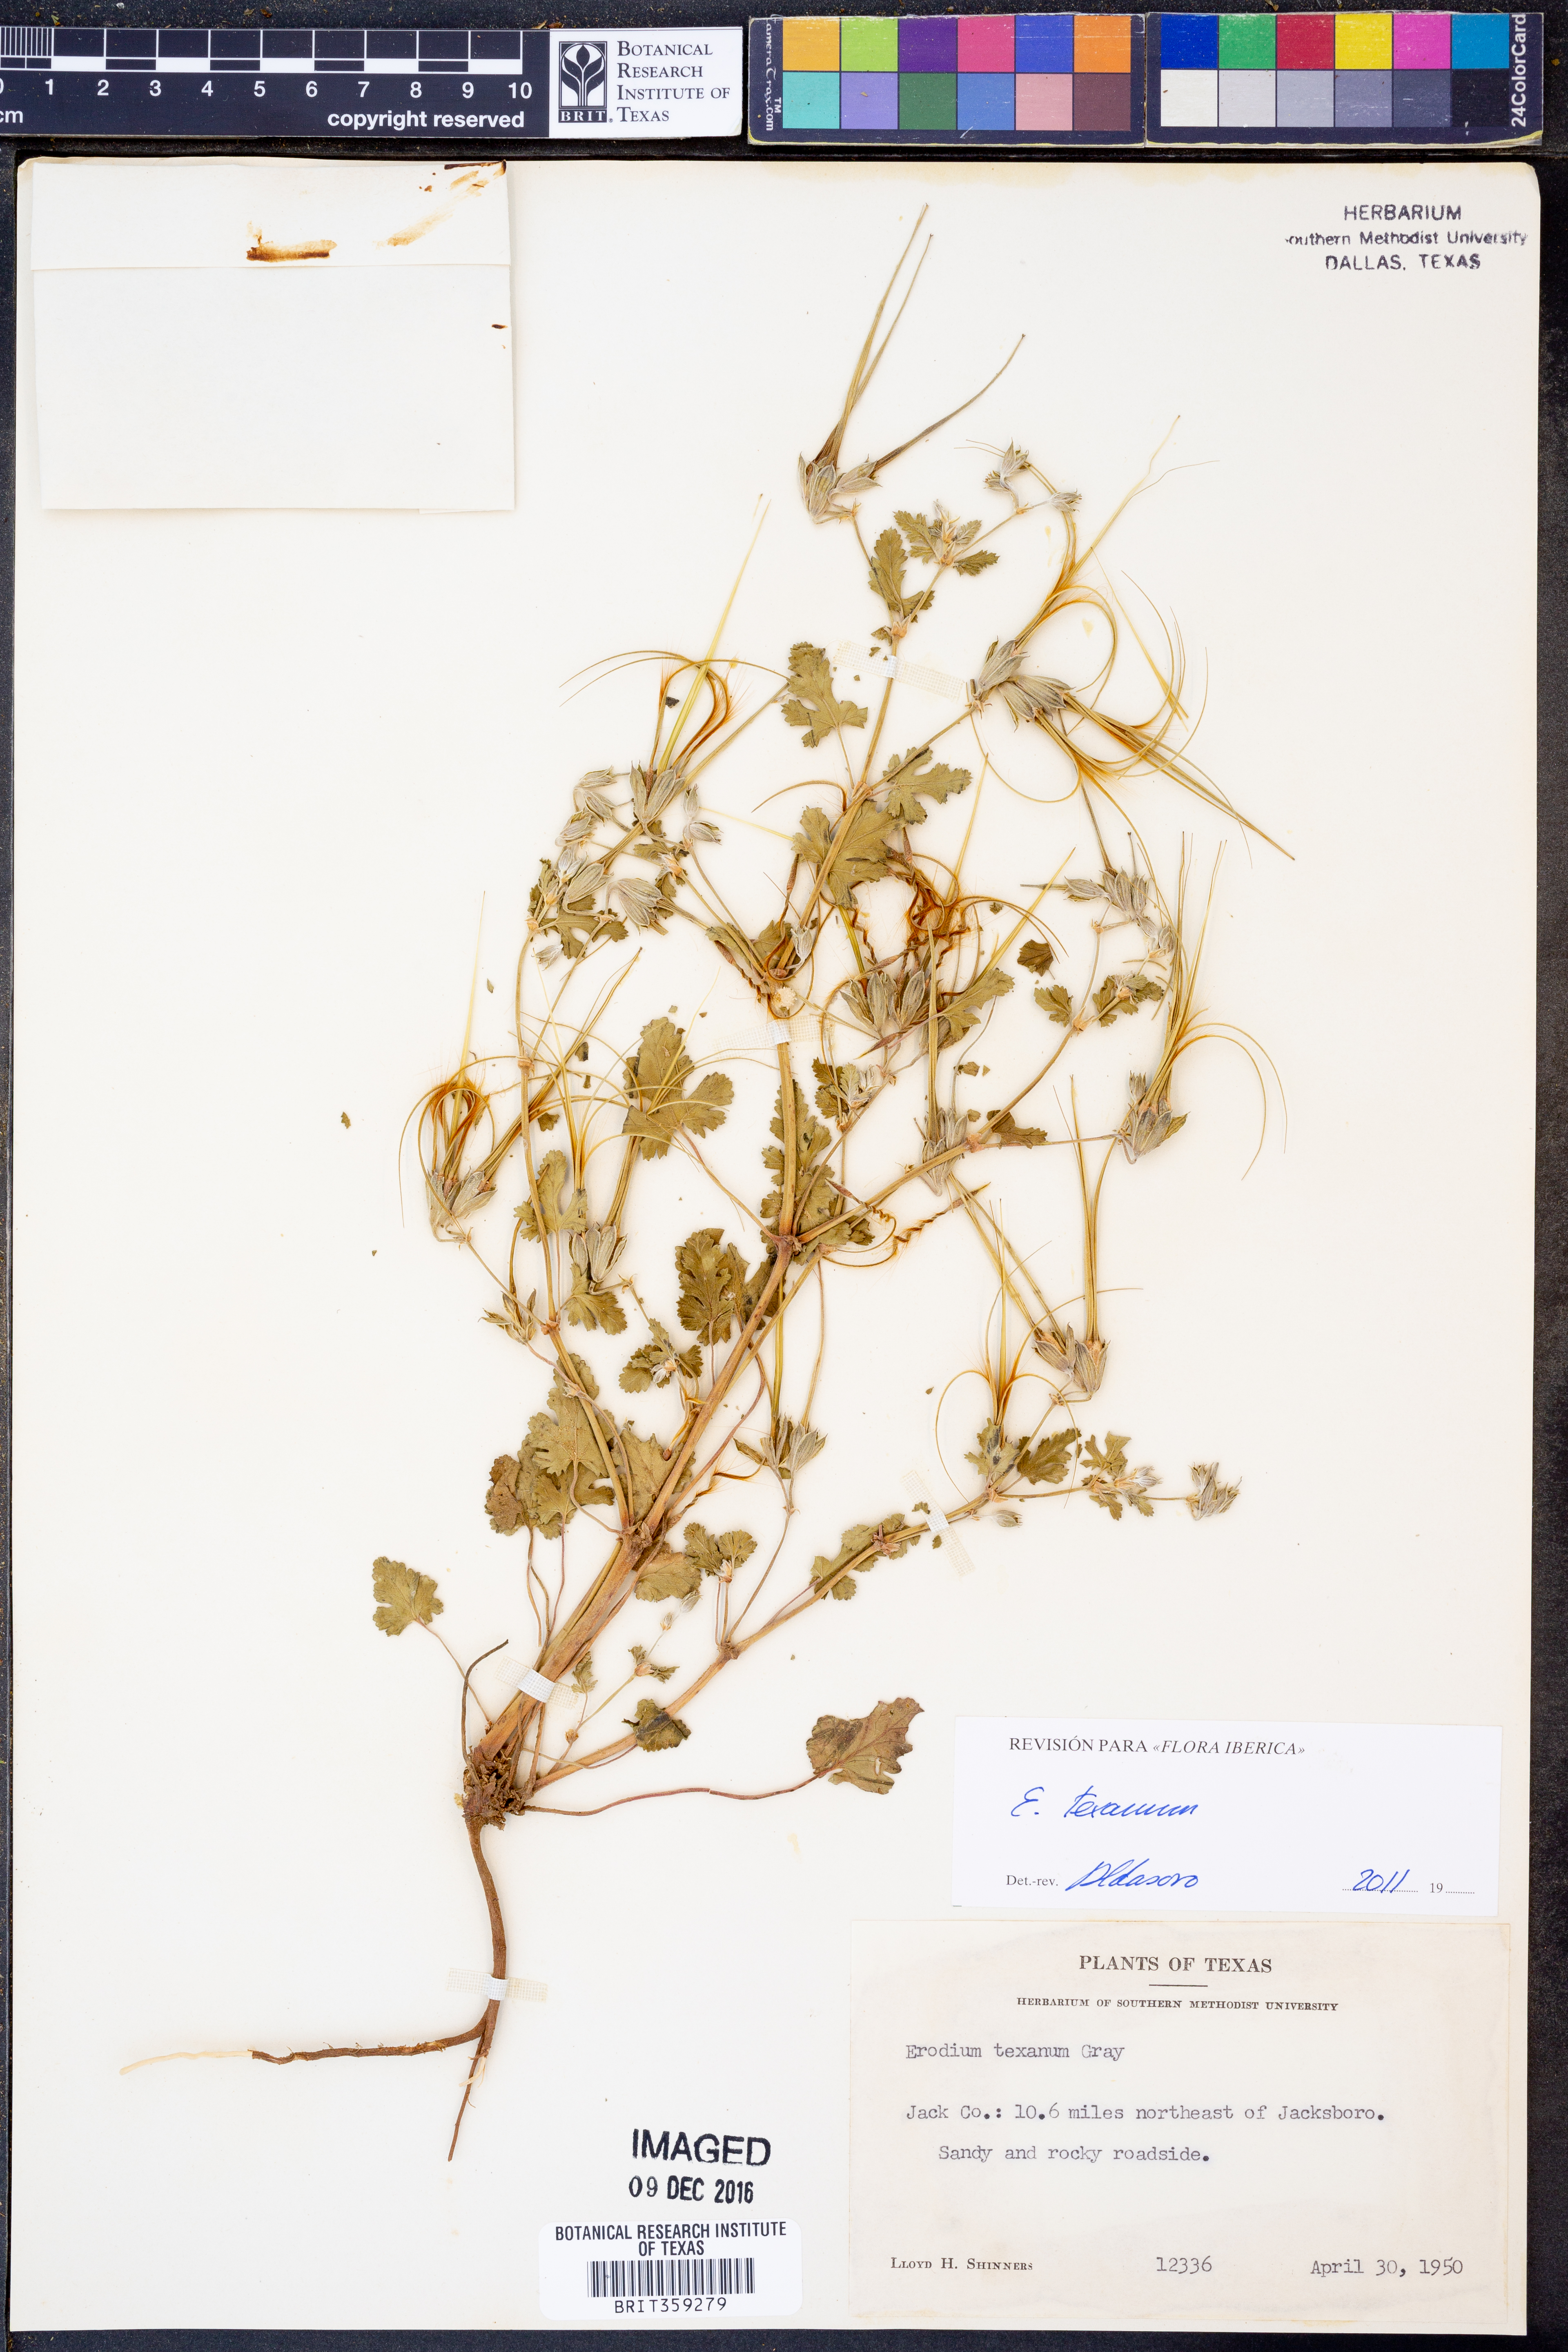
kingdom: Plantae
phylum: Tracheophyta
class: Magnoliopsida
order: Geraniales
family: Geraniaceae
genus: Erodium
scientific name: Erodium texanum
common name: Texas stork's-bill
